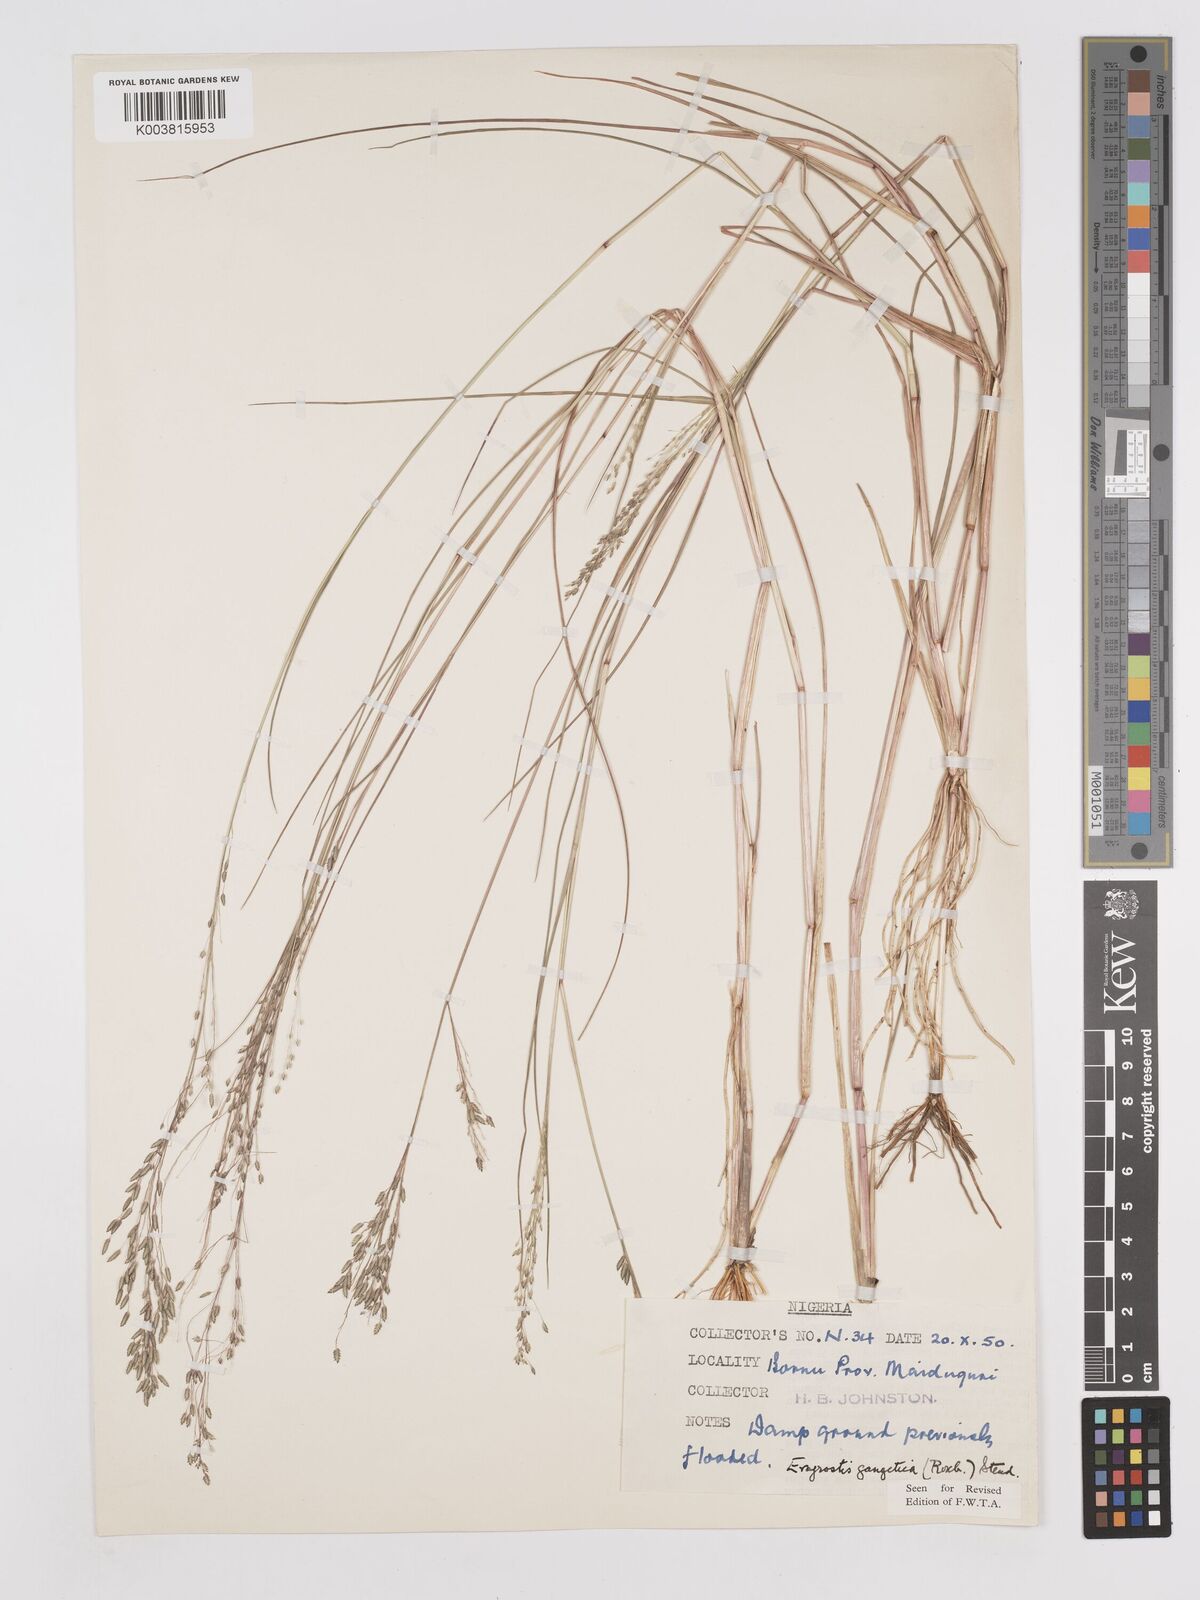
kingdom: Plantae
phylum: Tracheophyta
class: Liliopsida
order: Poales
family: Poaceae
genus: Eragrostis
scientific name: Eragrostis gangetica
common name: Slimflower lovegrass
